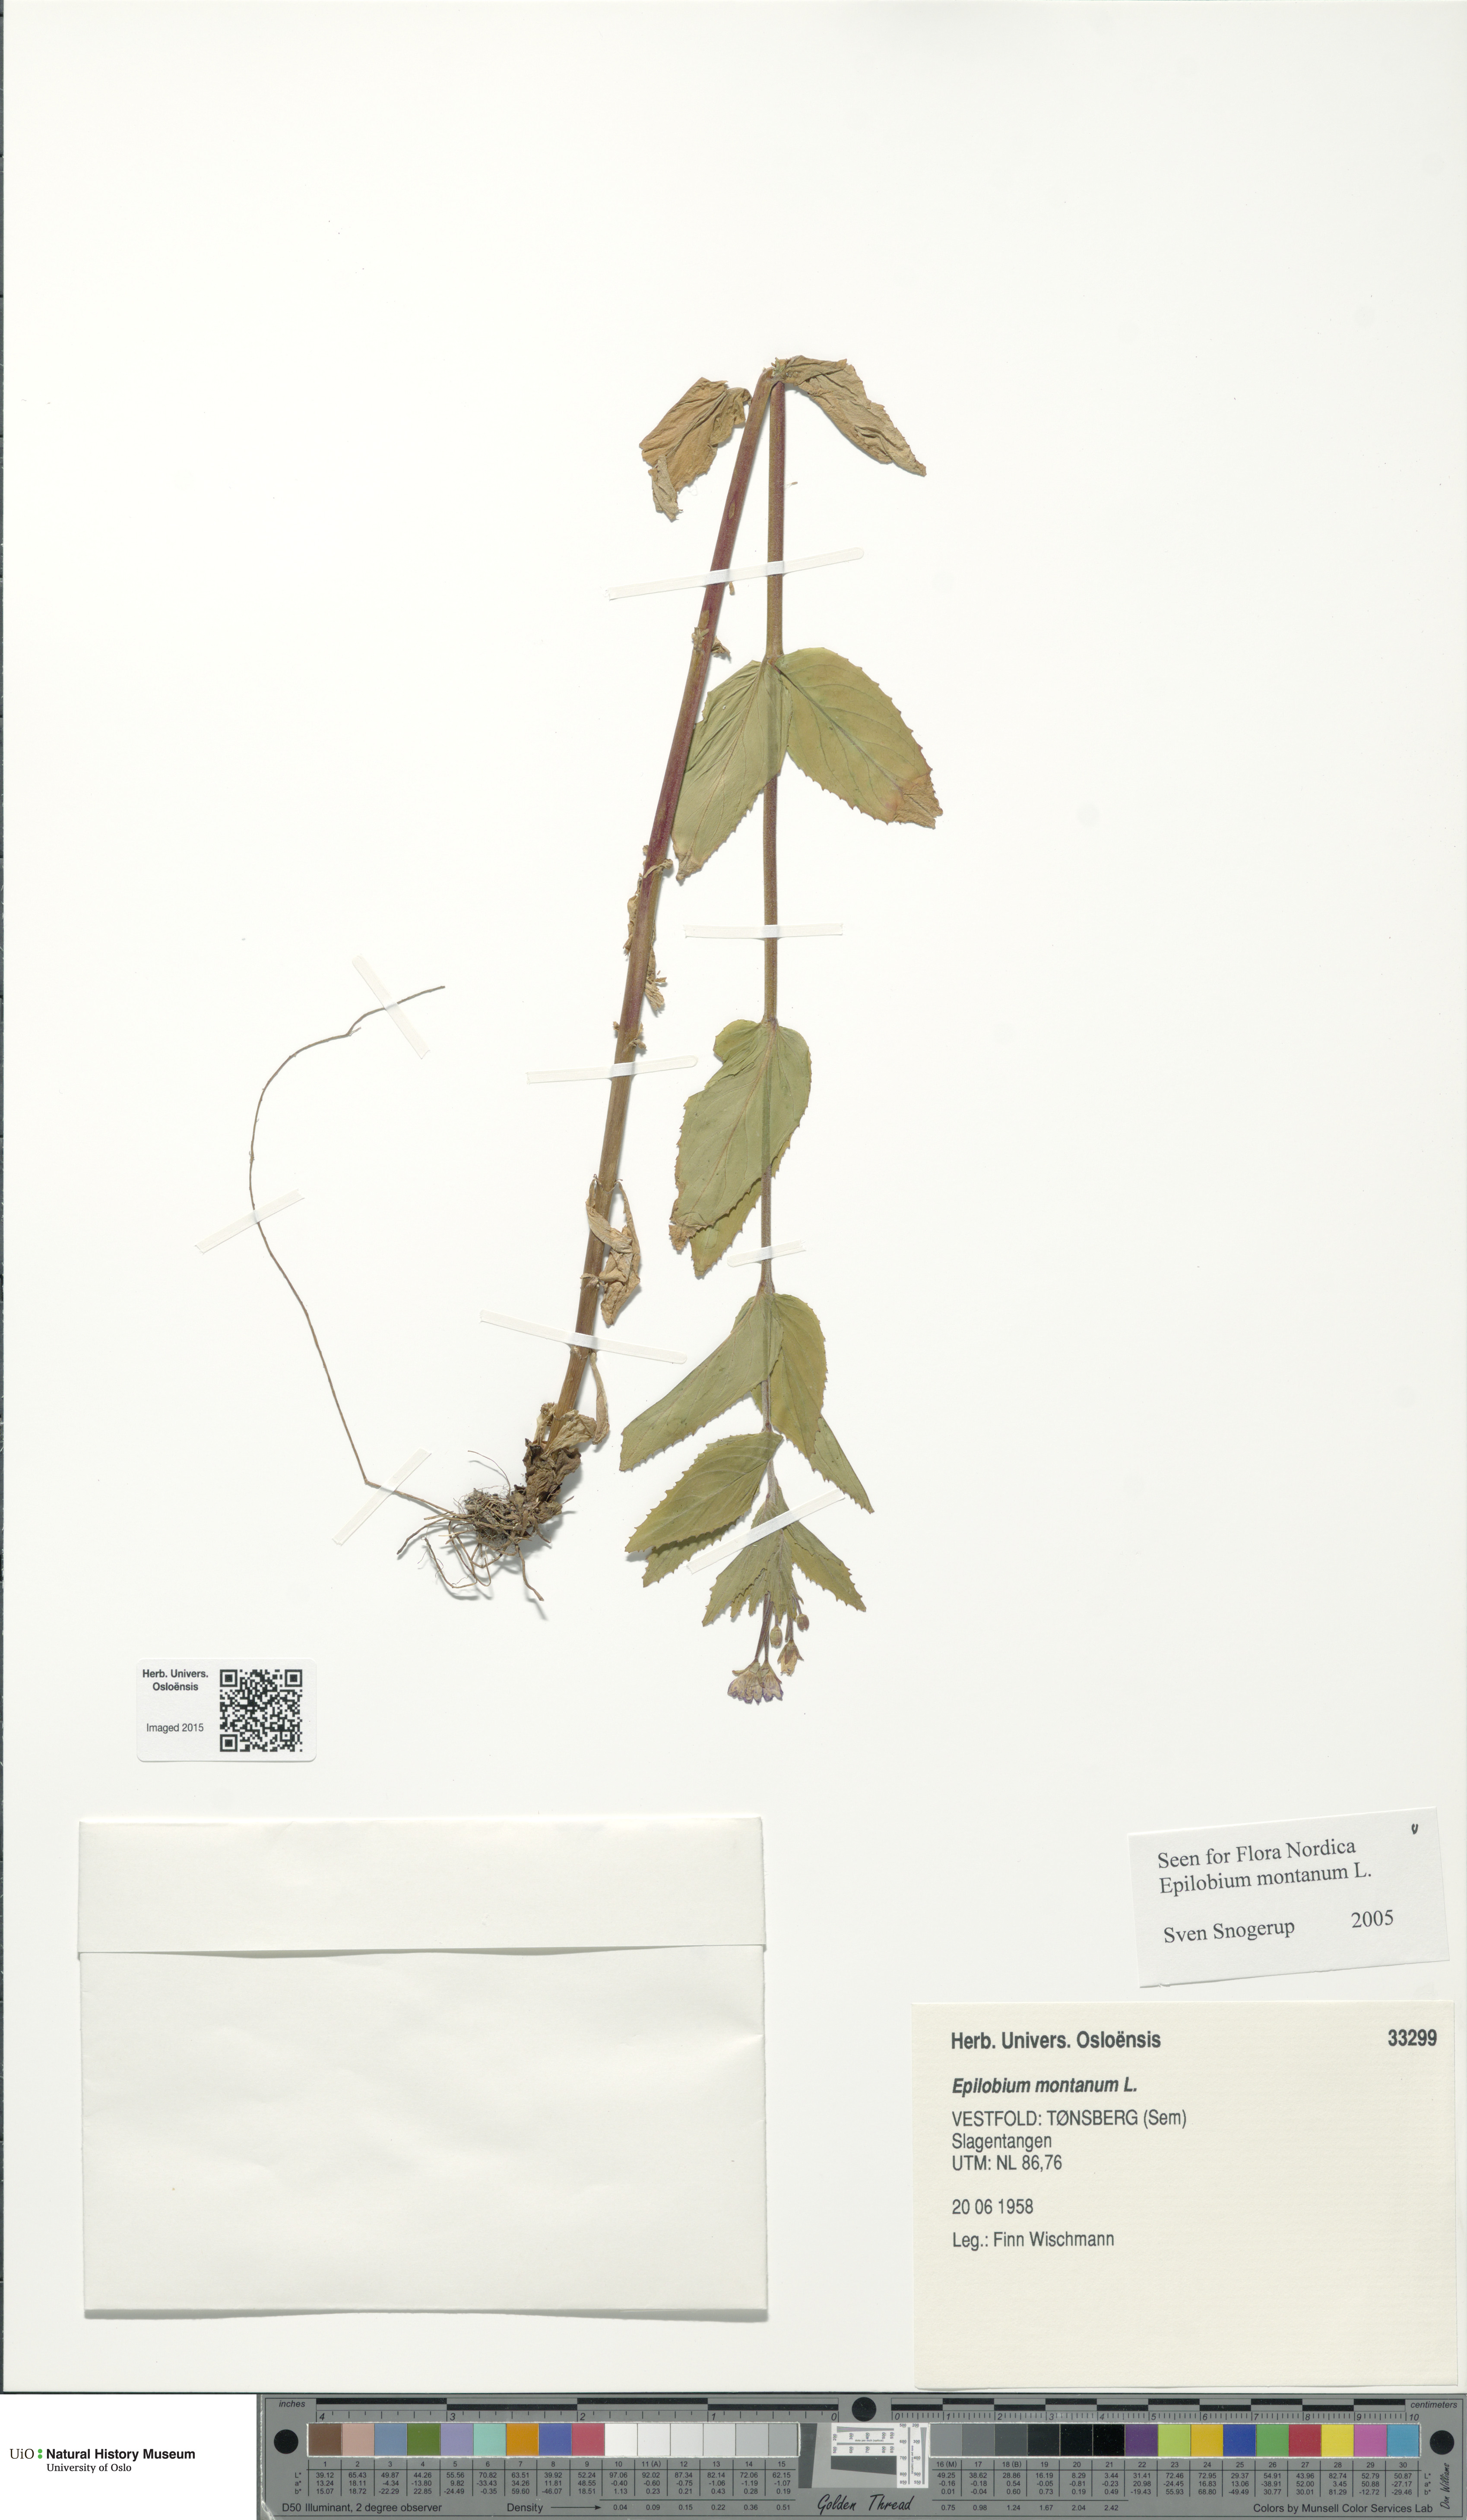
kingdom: Plantae
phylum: Tracheophyta
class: Magnoliopsida
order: Myrtales
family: Onagraceae
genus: Epilobium
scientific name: Epilobium montanum
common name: Broad-leaved willowherb
